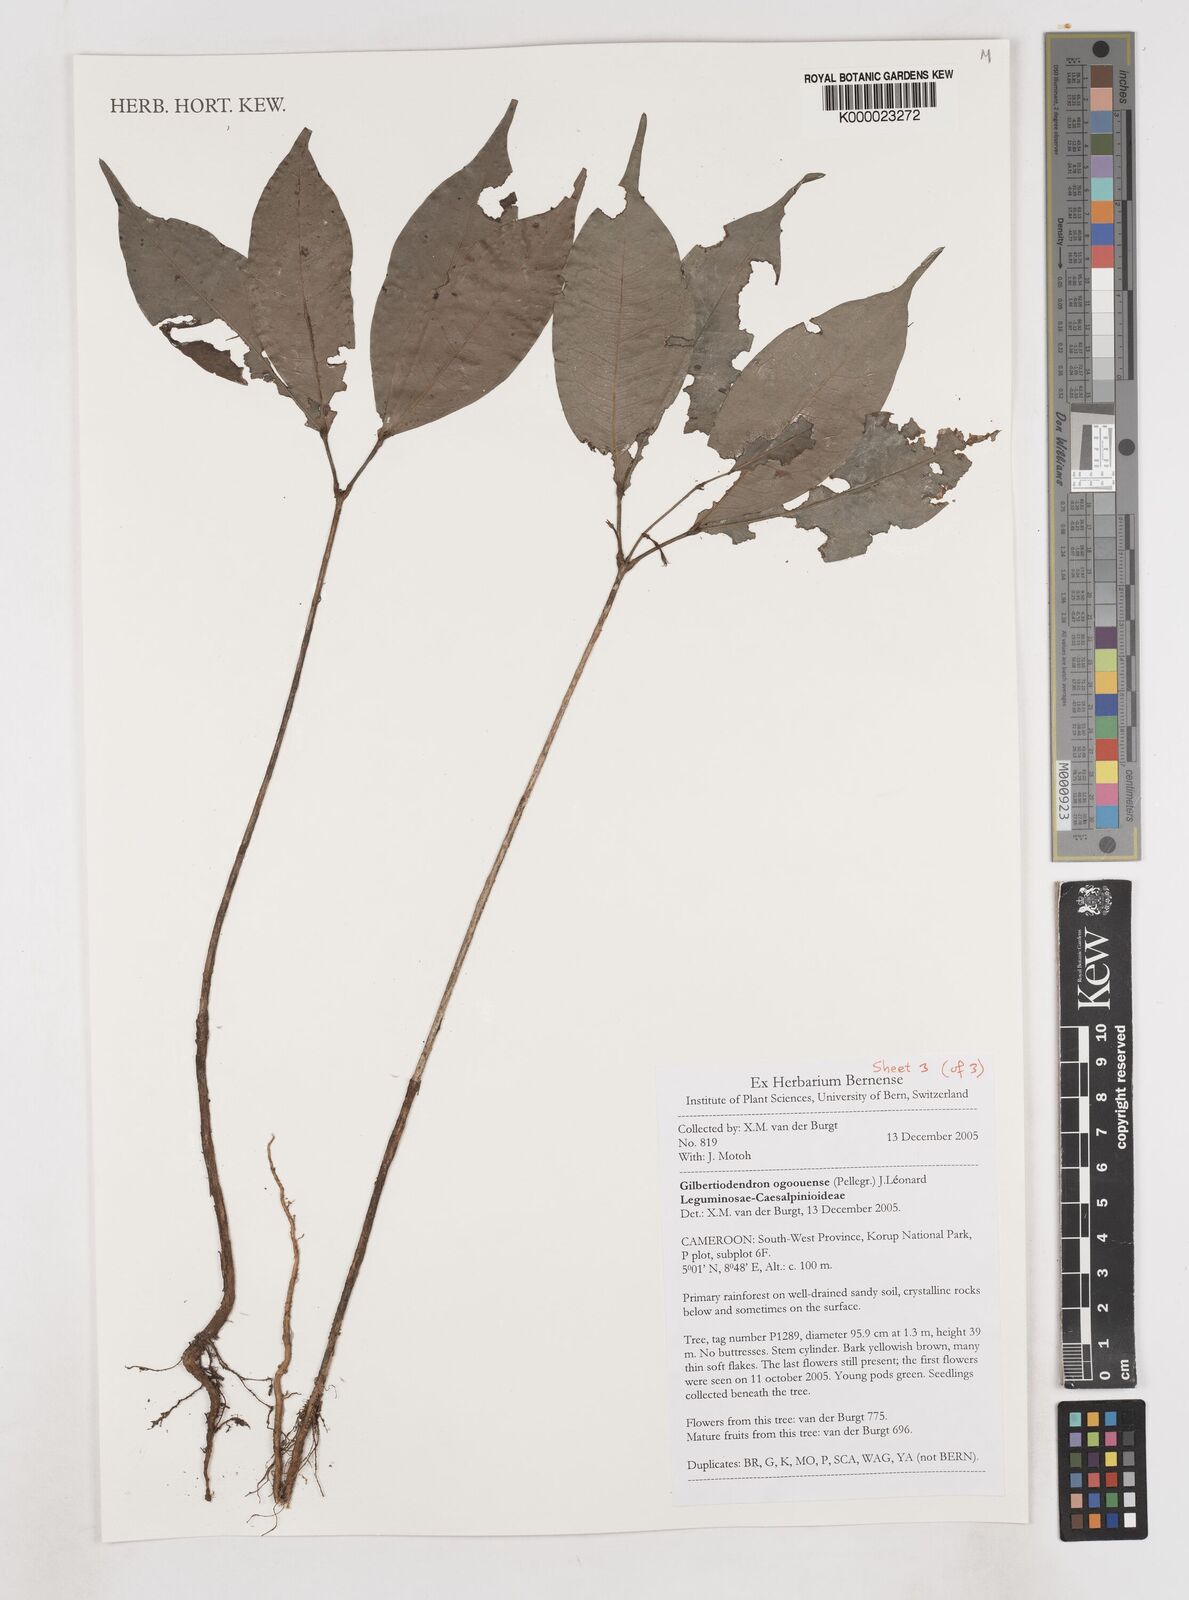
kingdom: Plantae
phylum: Tracheophyta
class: Magnoliopsida
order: Fabales
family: Fabaceae
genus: Gilbertiodendron
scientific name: Gilbertiodendron
